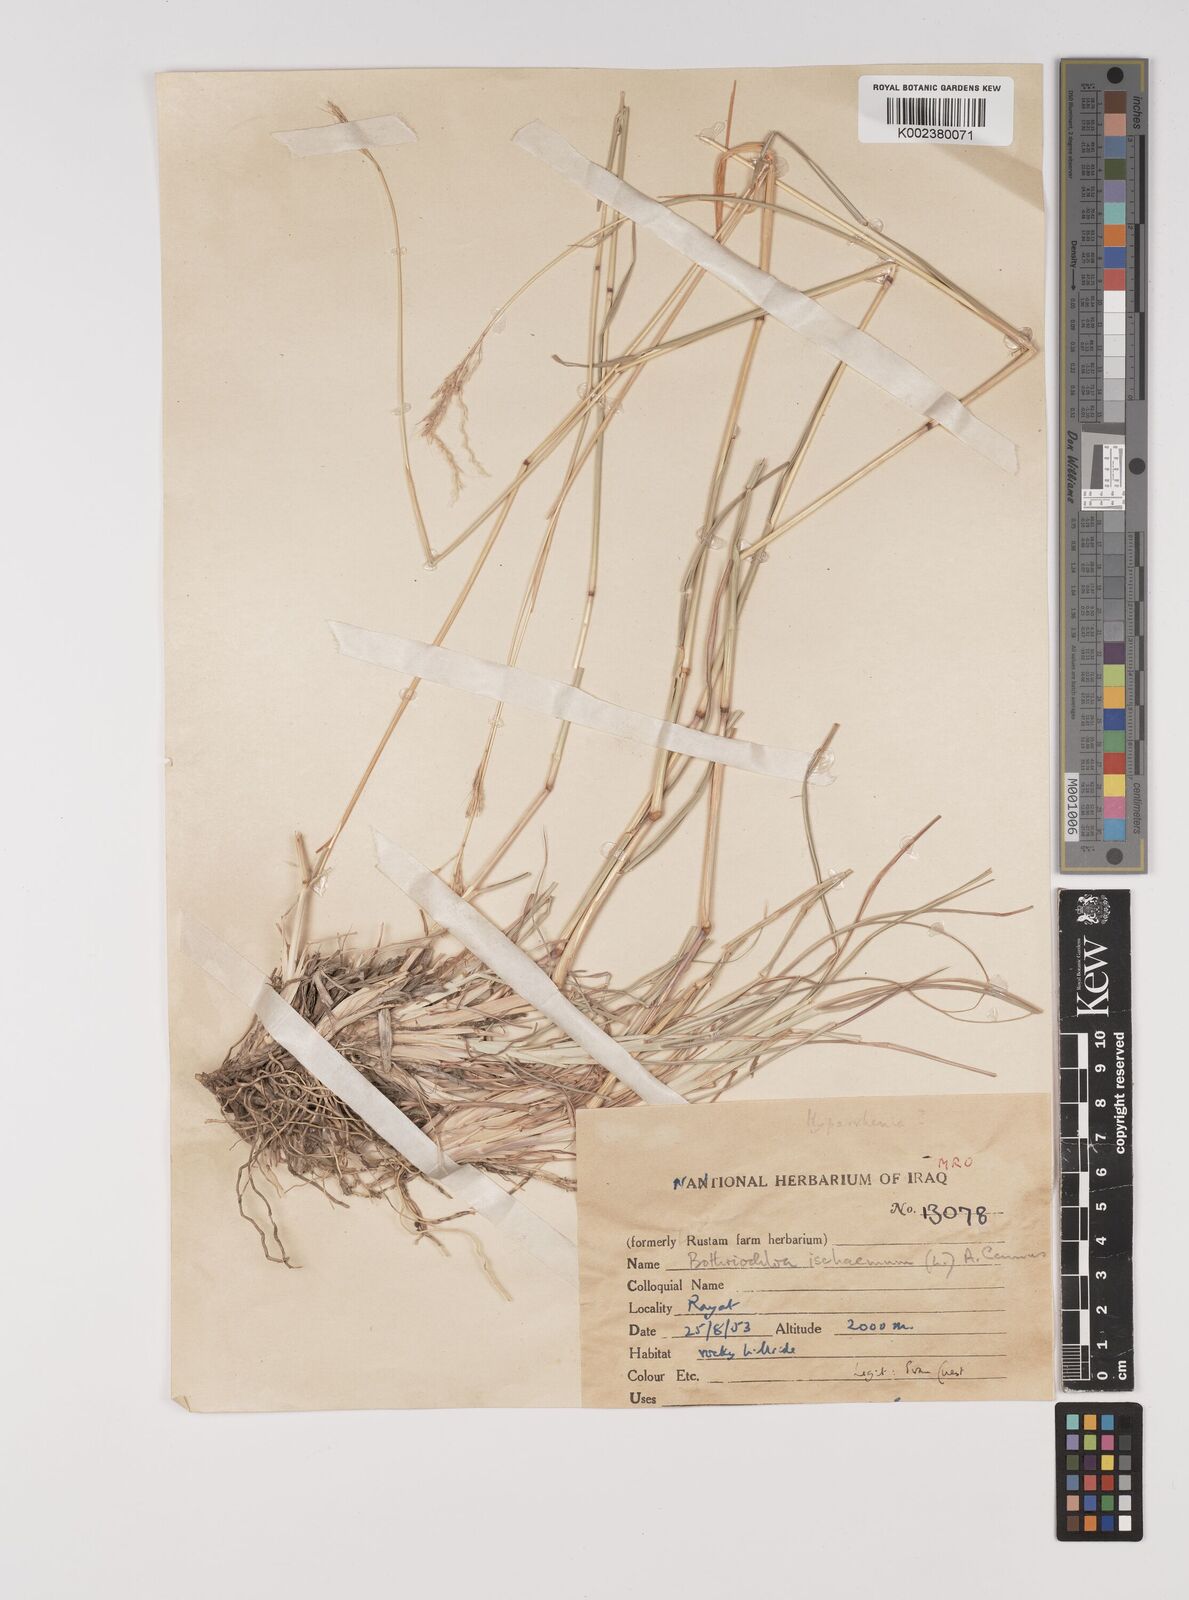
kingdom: Plantae
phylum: Tracheophyta
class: Liliopsida
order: Poales
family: Poaceae
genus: Bothriochloa
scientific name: Bothriochloa ischaemum
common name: Yellow bluestem
